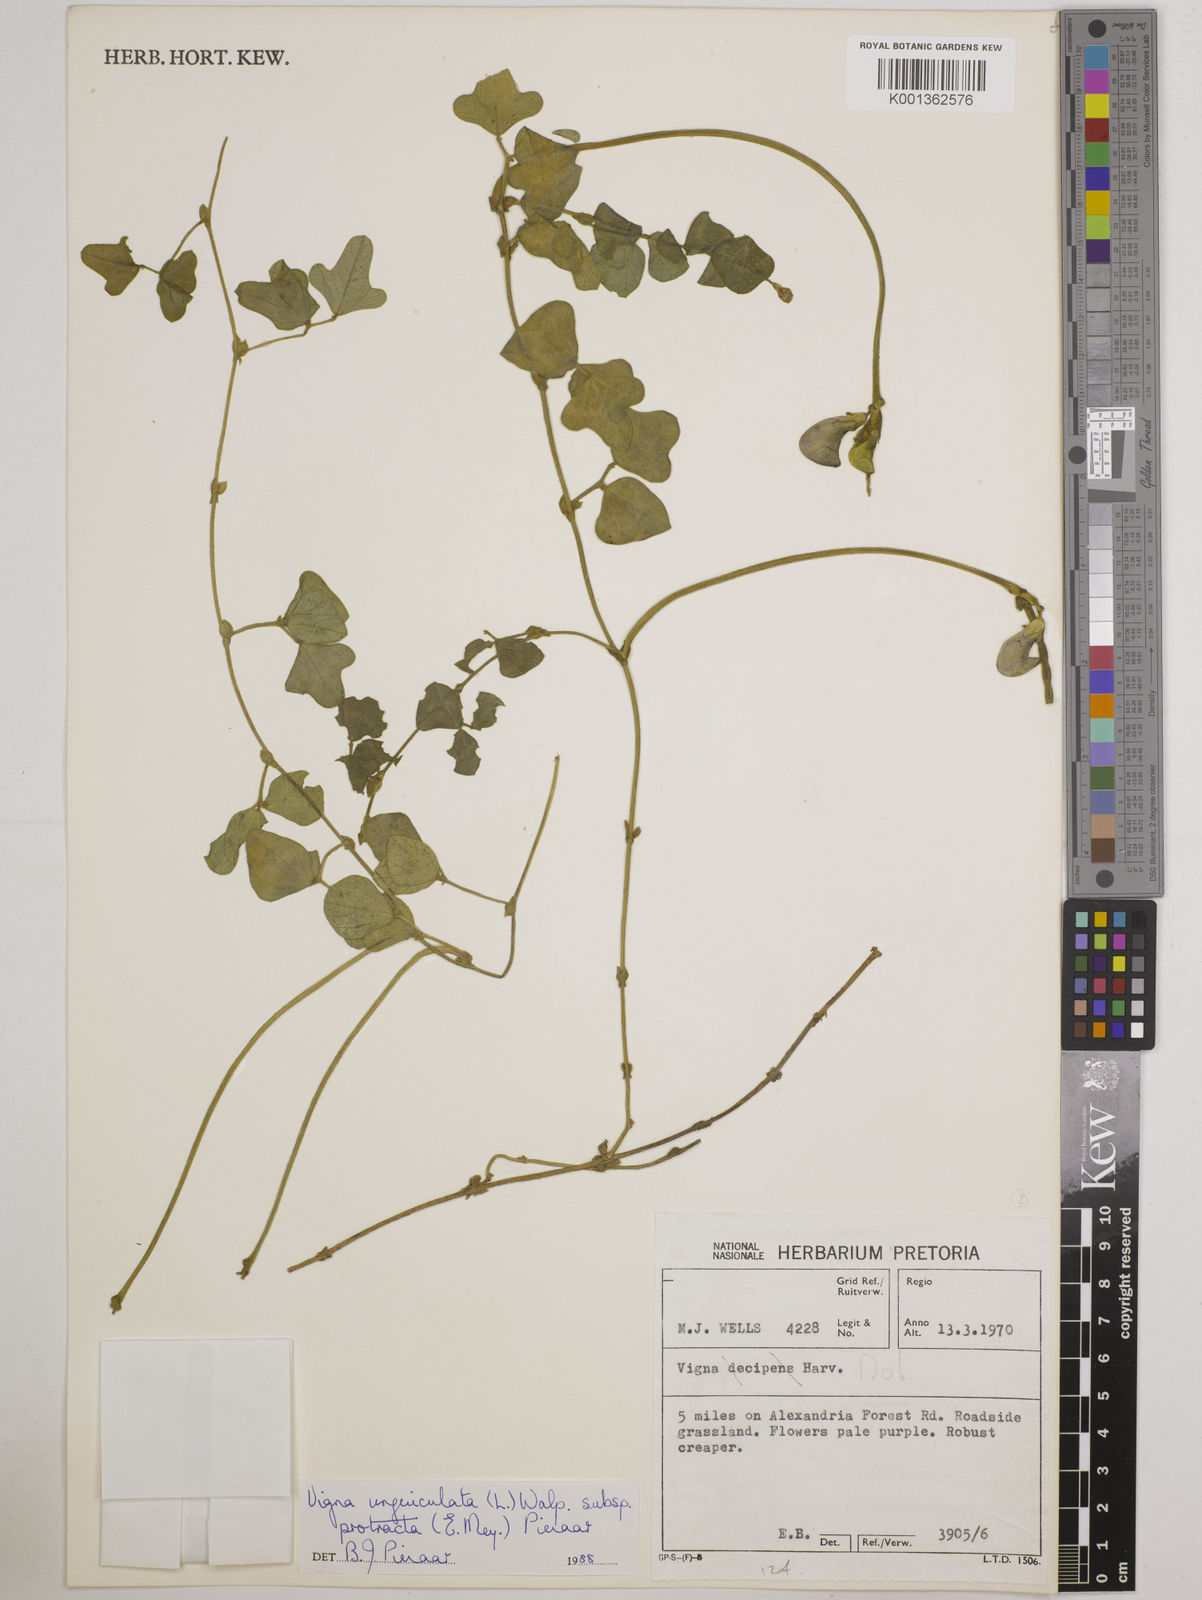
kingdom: Plantae
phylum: Tracheophyta
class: Magnoliopsida
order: Fabales
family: Fabaceae
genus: Vigna
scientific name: Vigna unguiculata
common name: Cowpea
